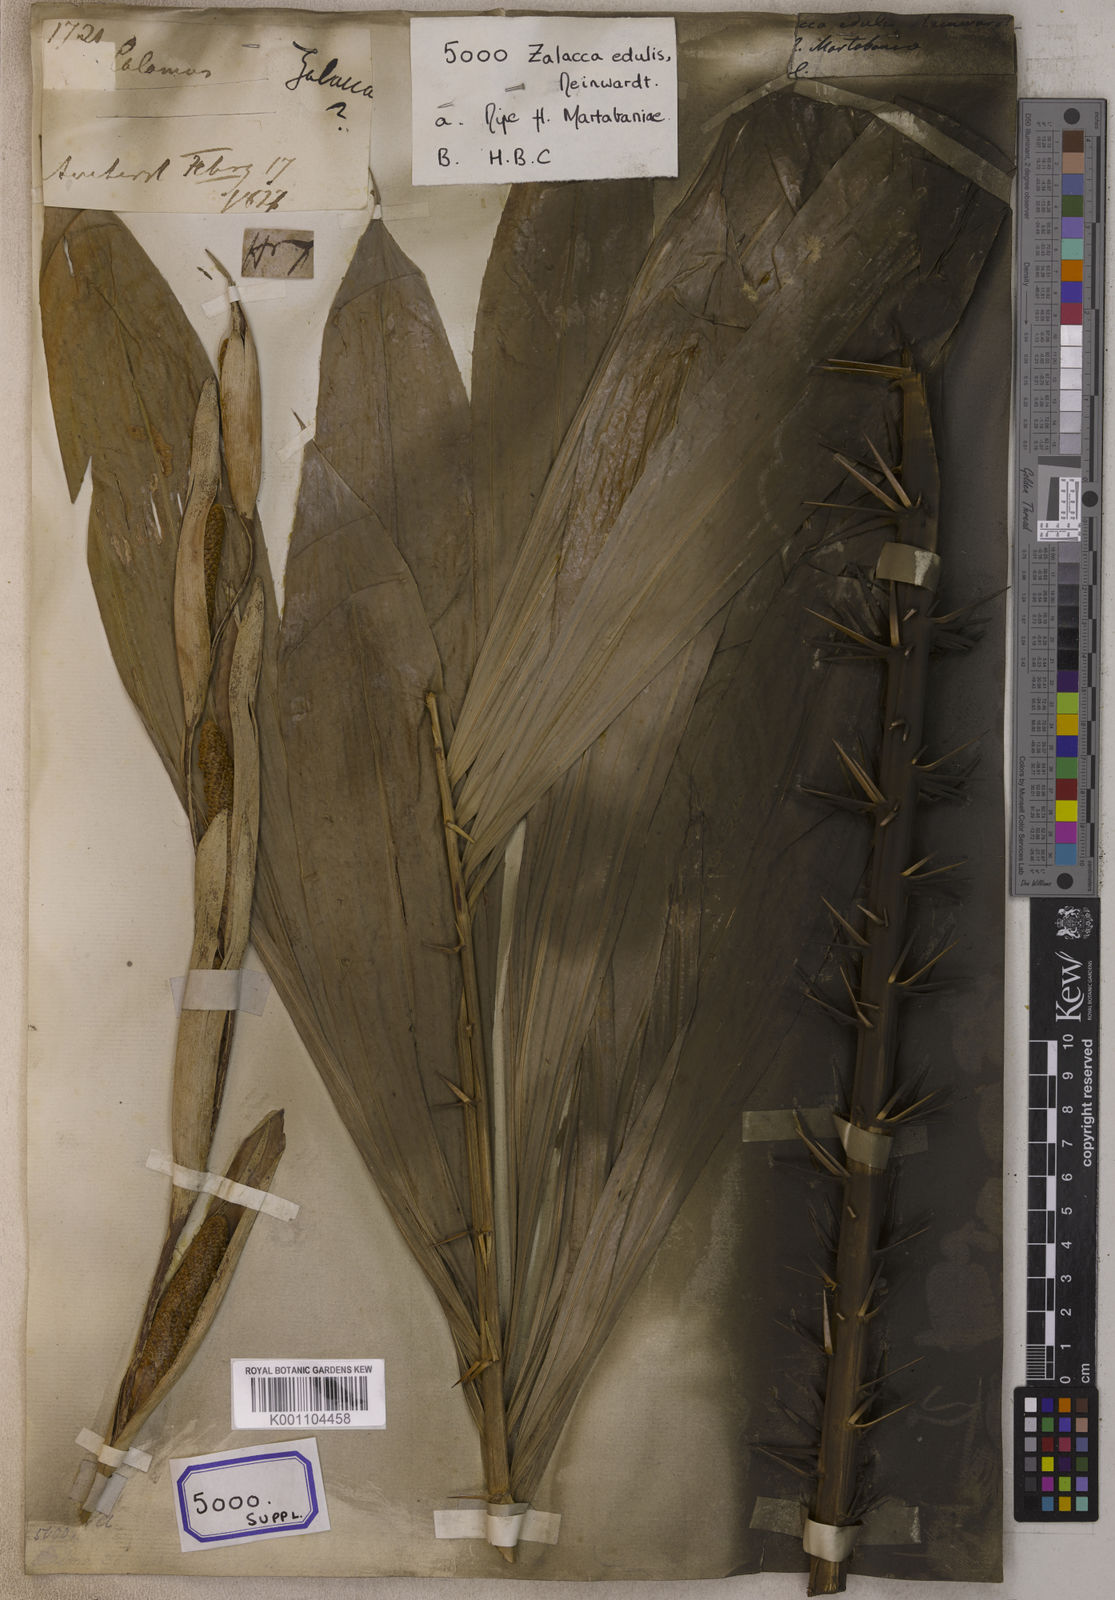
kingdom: Plantae
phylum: Tracheophyta
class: Liliopsida
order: Arecales
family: Arecaceae
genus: Salacca
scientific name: Salacca zalacca
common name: Salak
